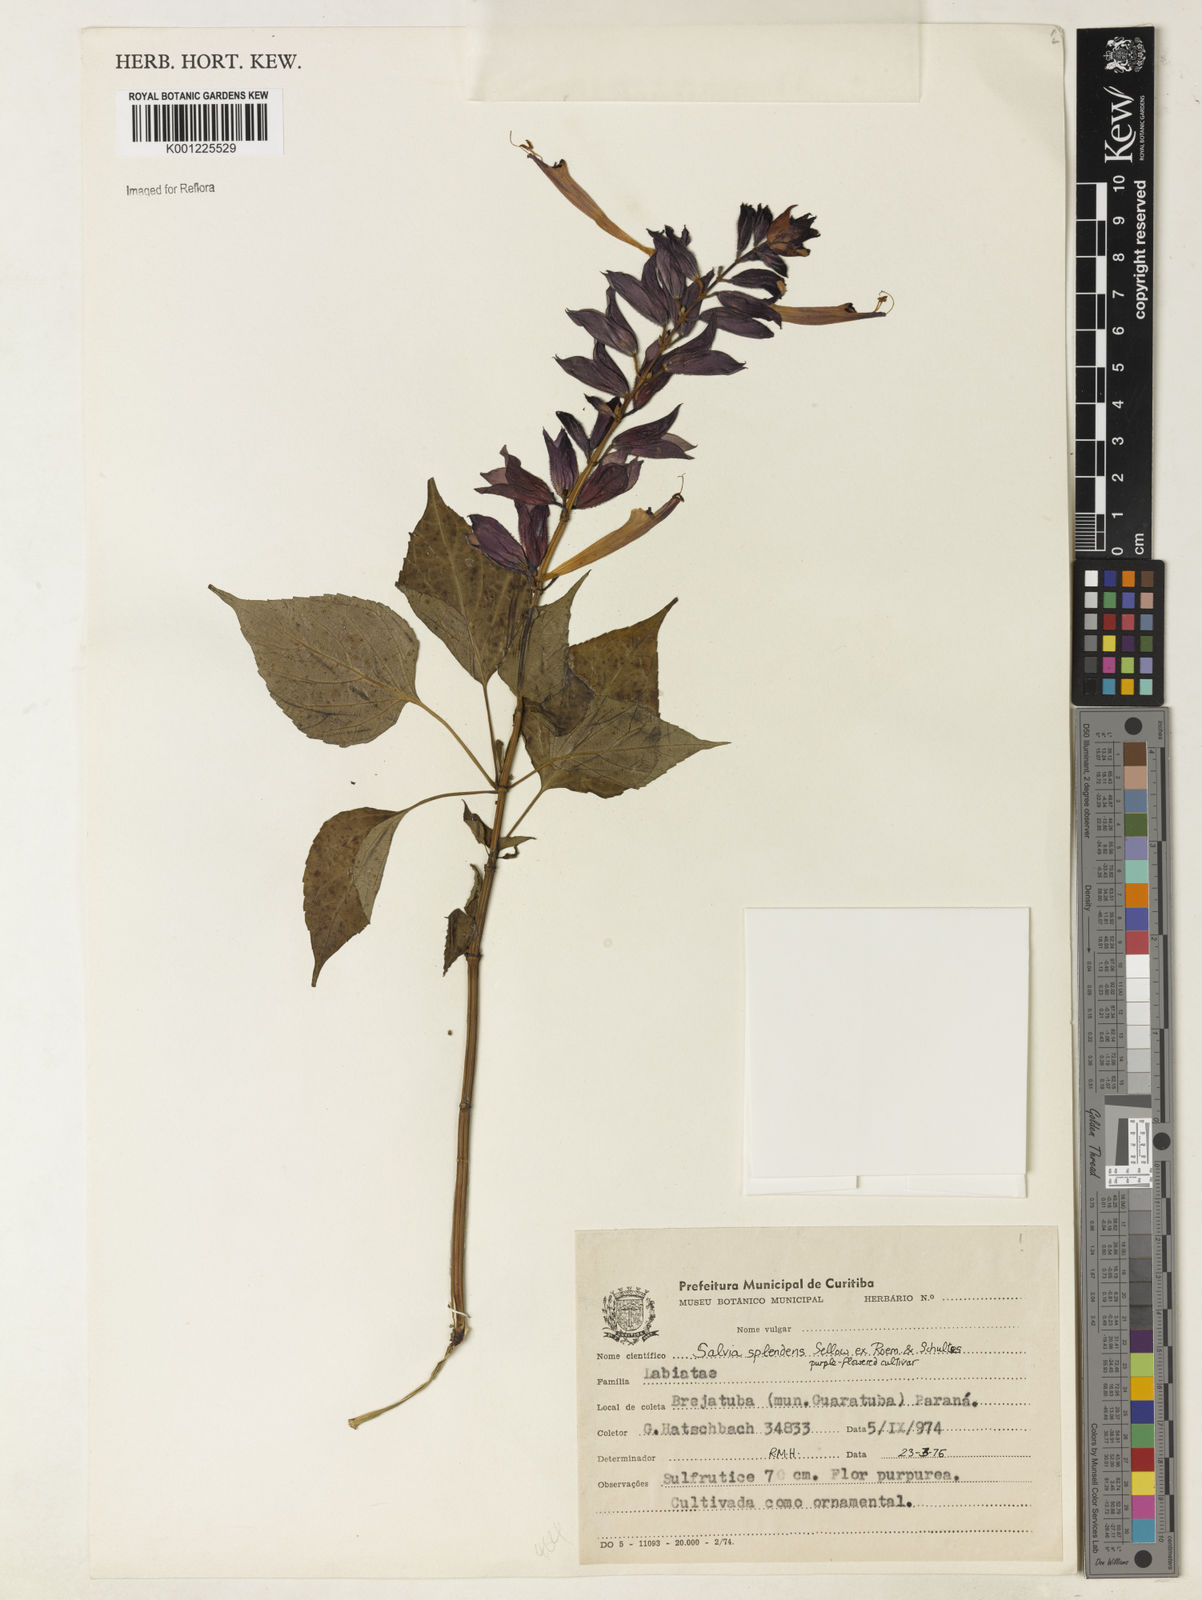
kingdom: Plantae
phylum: Tracheophyta
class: Magnoliopsida
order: Lamiales
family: Lamiaceae
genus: Salvia
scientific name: Salvia
